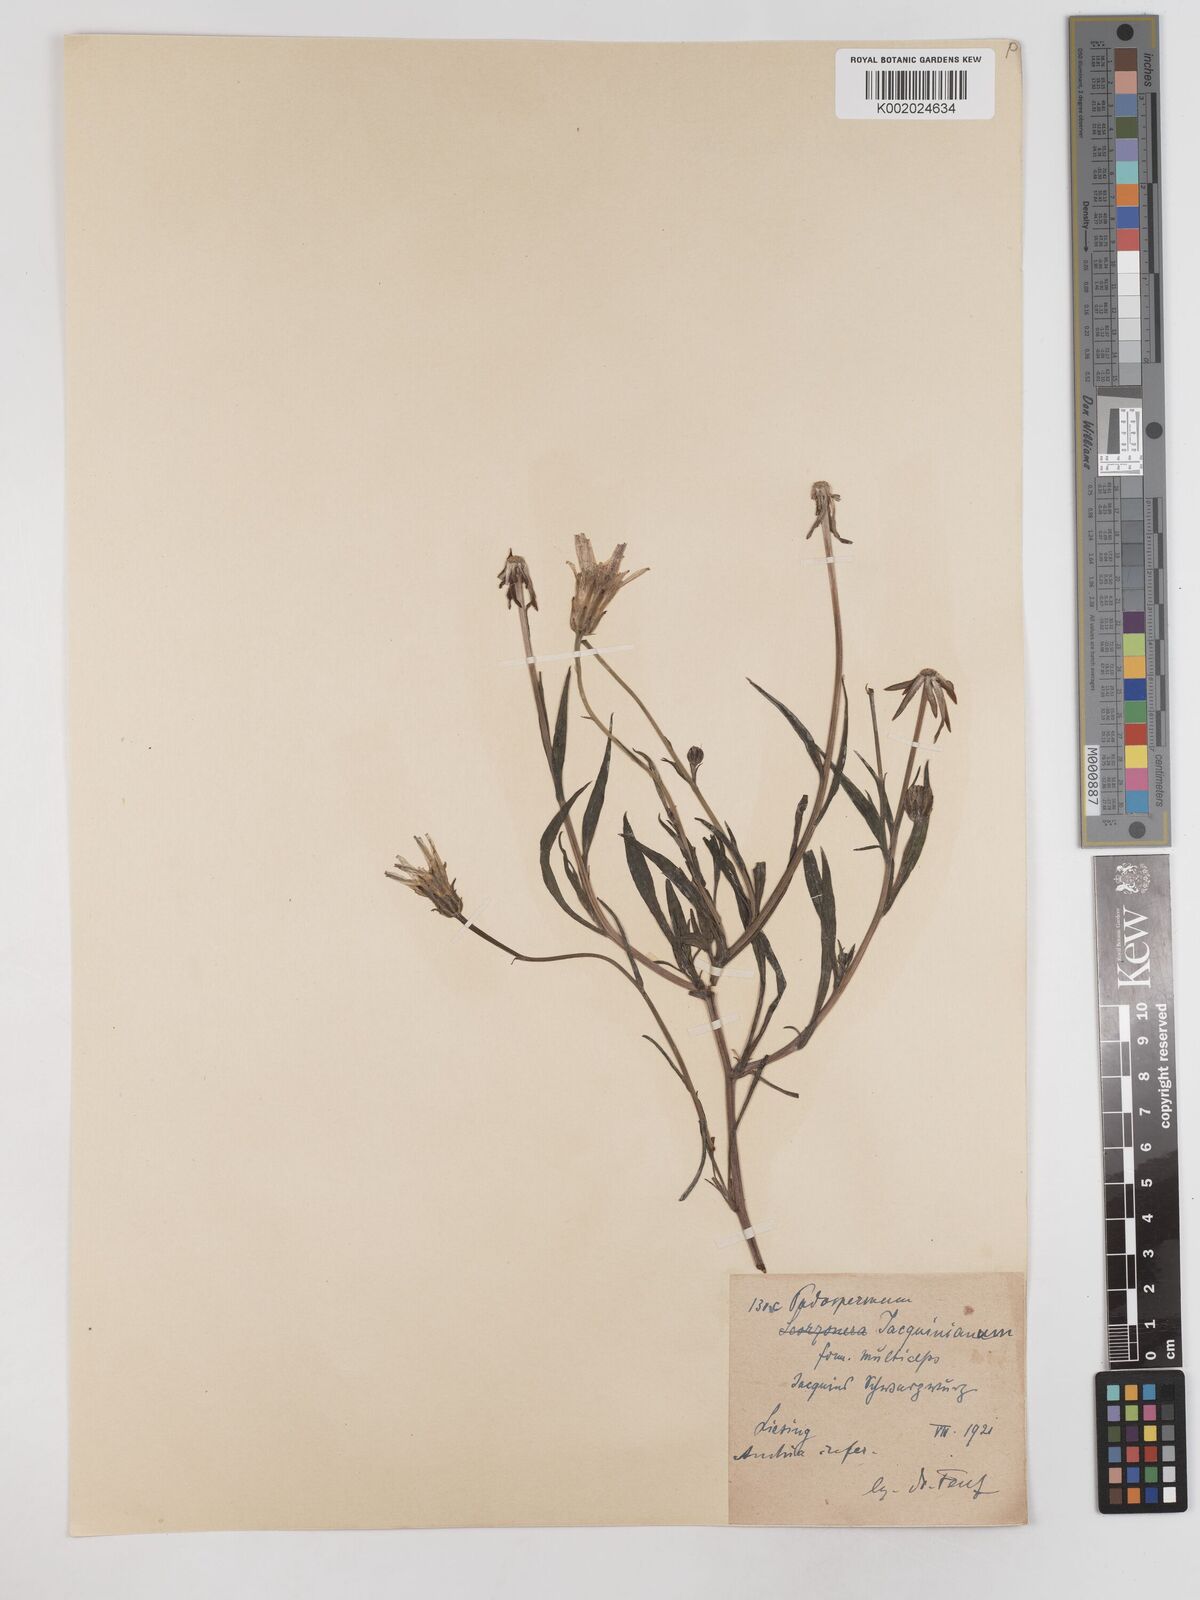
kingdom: Plantae
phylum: Tracheophyta
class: Magnoliopsida
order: Asterales
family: Asteraceae
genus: Scorzonera
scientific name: Scorzonera cana
